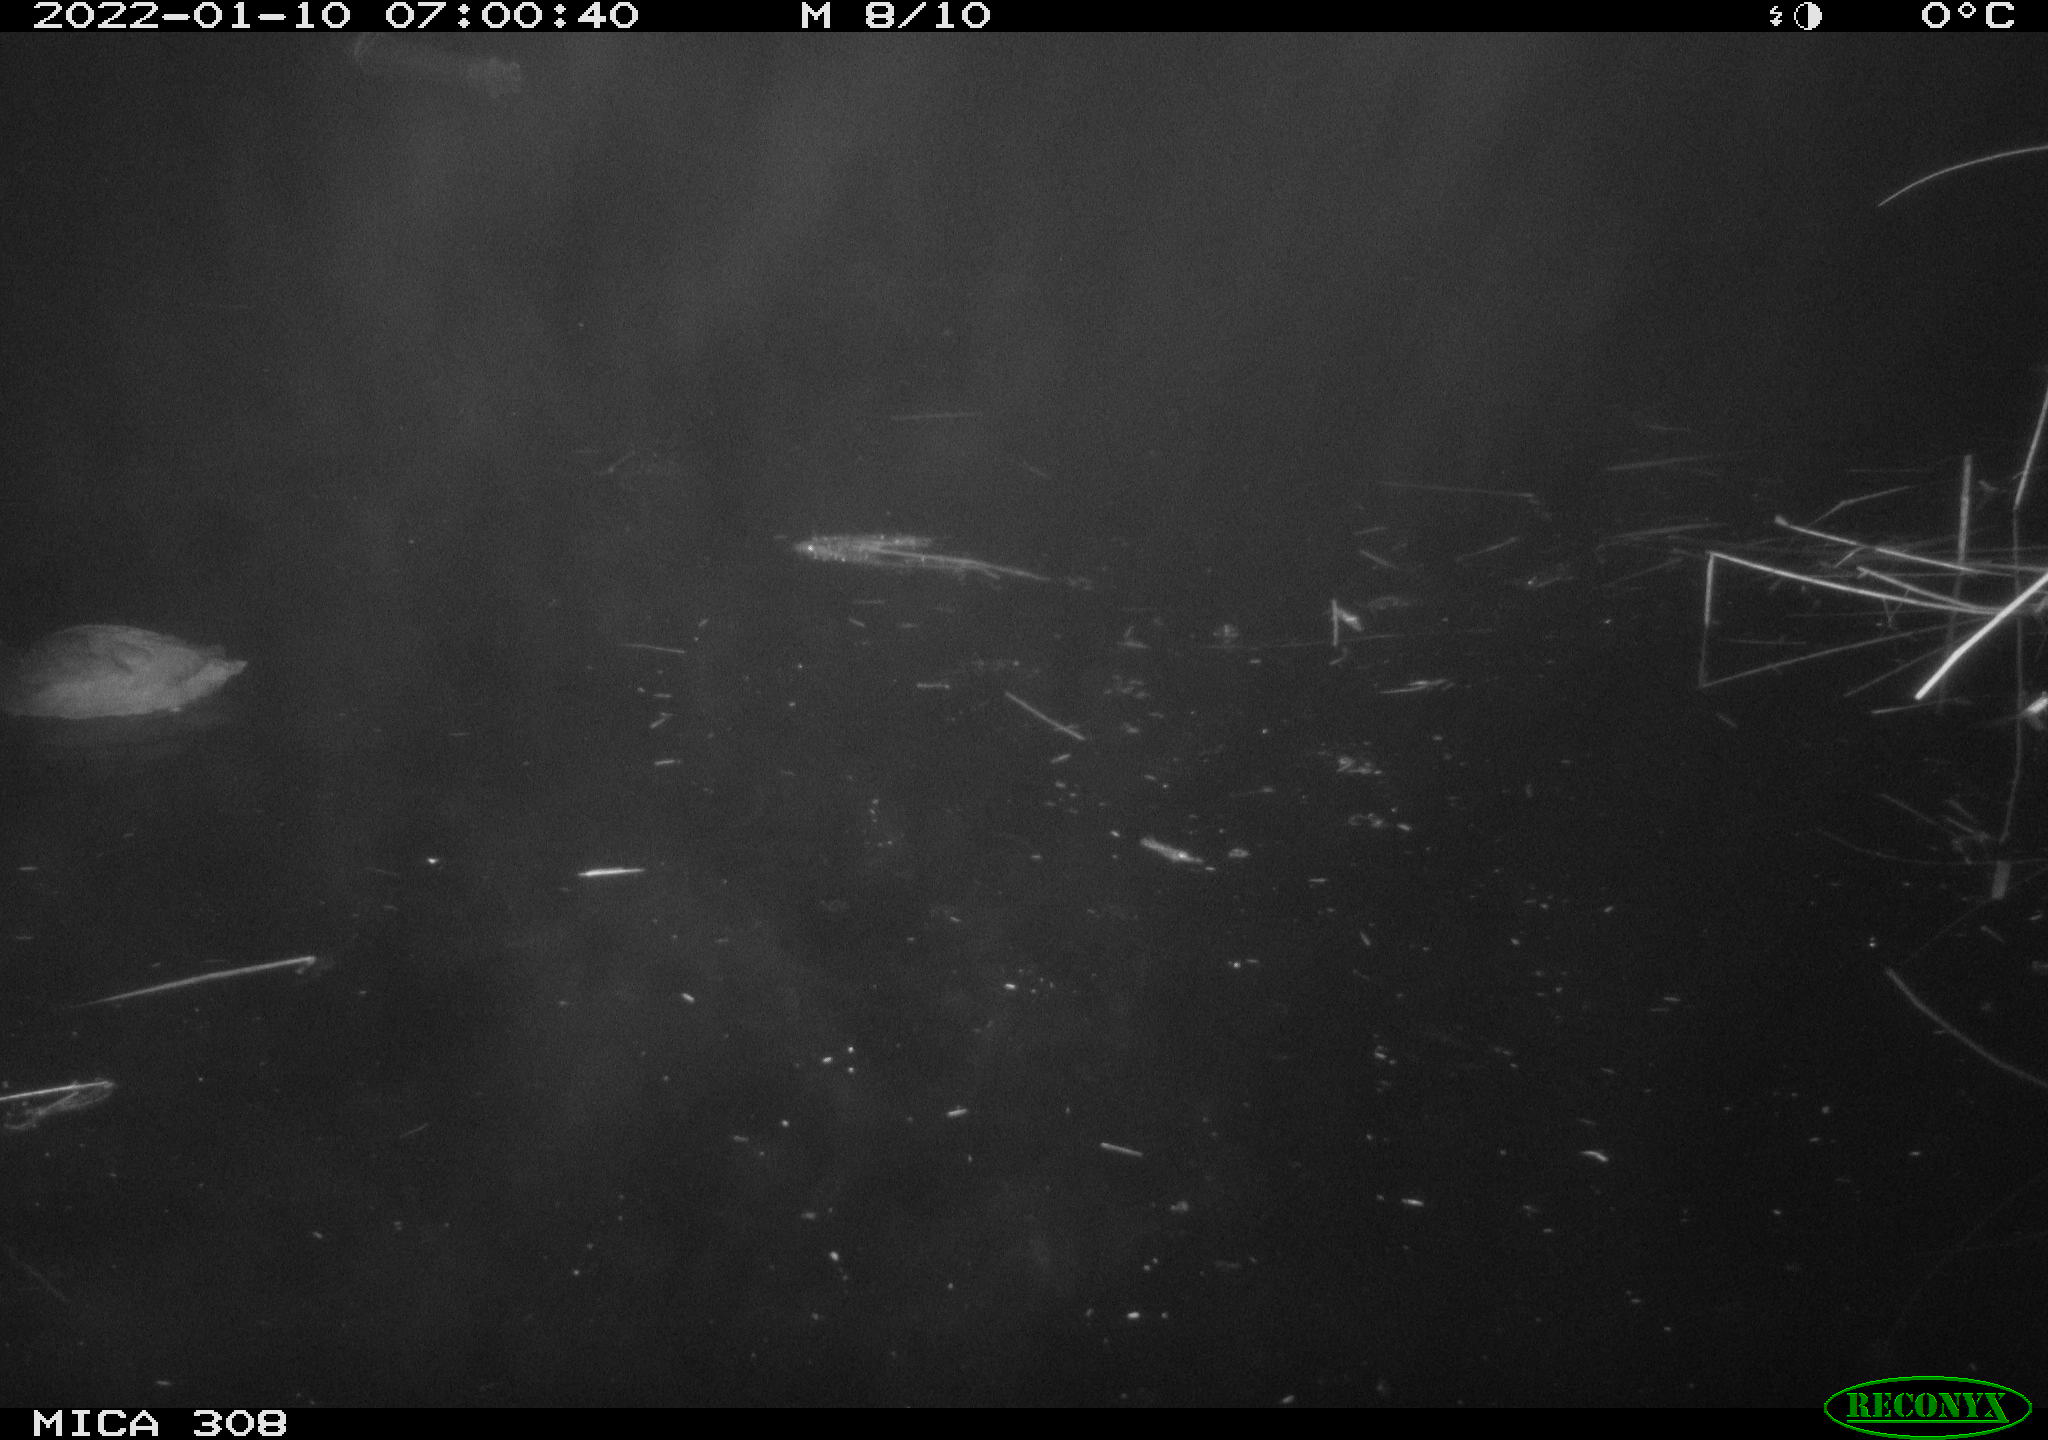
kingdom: Animalia
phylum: Chordata
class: Aves
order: Anseriformes
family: Anatidae
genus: Anas
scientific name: Anas
